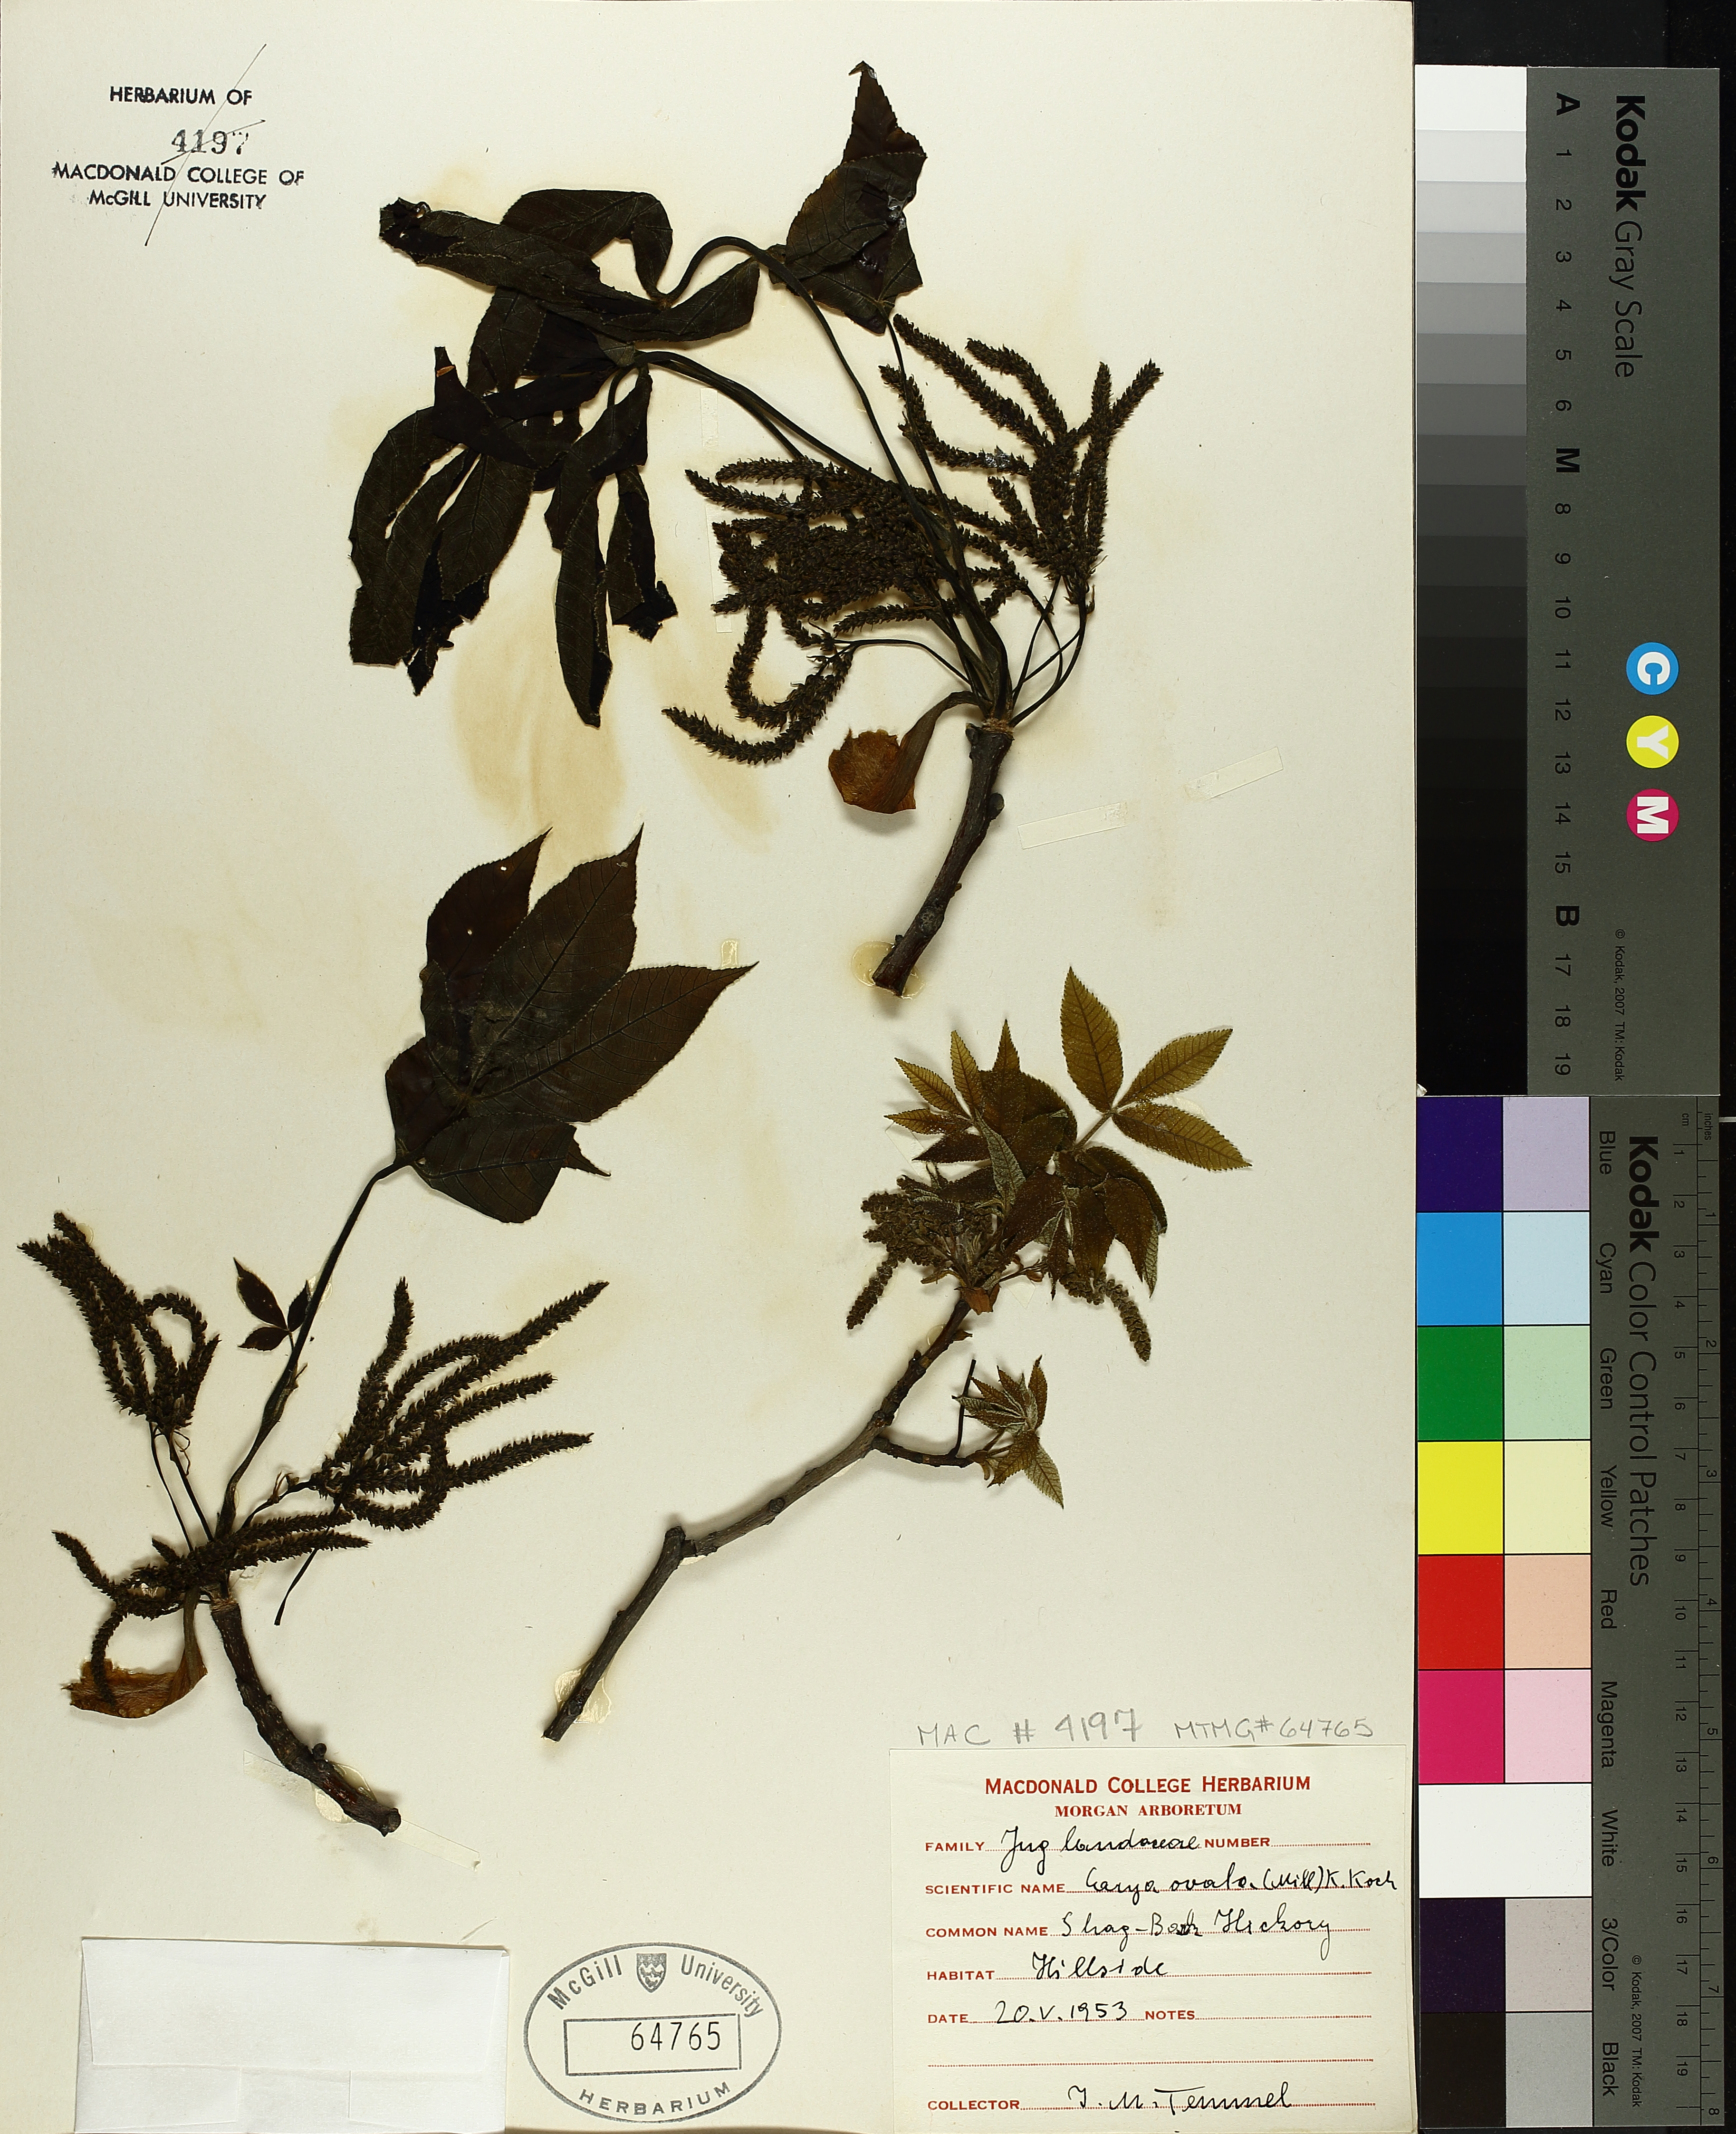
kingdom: Plantae
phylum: Tracheophyta
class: Magnoliopsida
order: Fagales
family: Juglandaceae
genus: Carya
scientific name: Carya ovata
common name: Shagbark hickory
